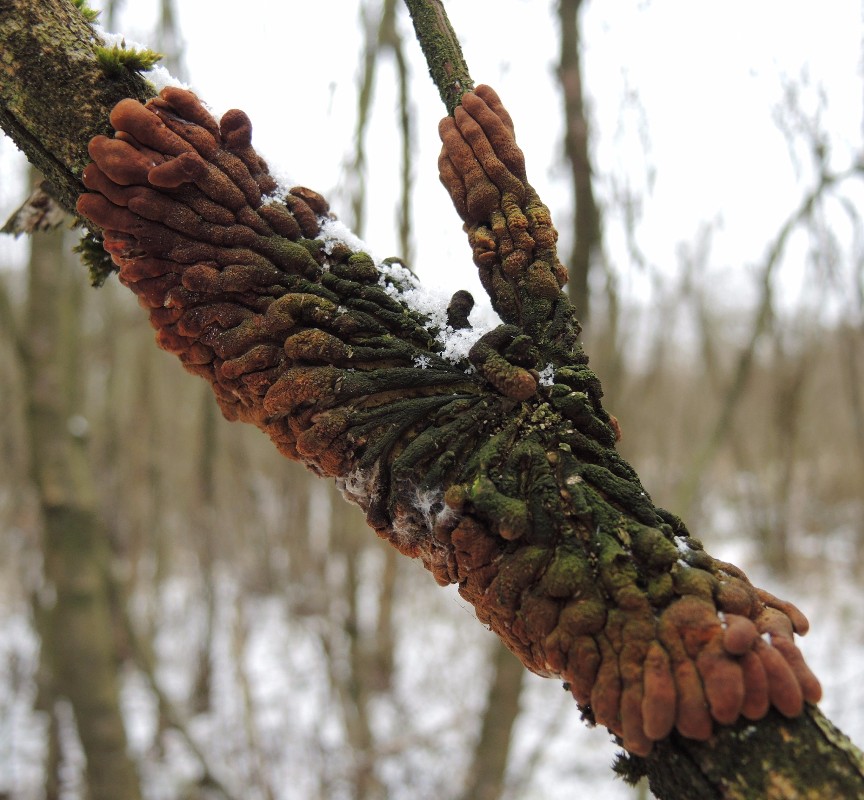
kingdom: Fungi
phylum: Ascomycota
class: Sordariomycetes
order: Hypocreales
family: Hypocreaceae
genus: Hypocreopsis
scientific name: Hypocreopsis lichenoides
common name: pilfinger
